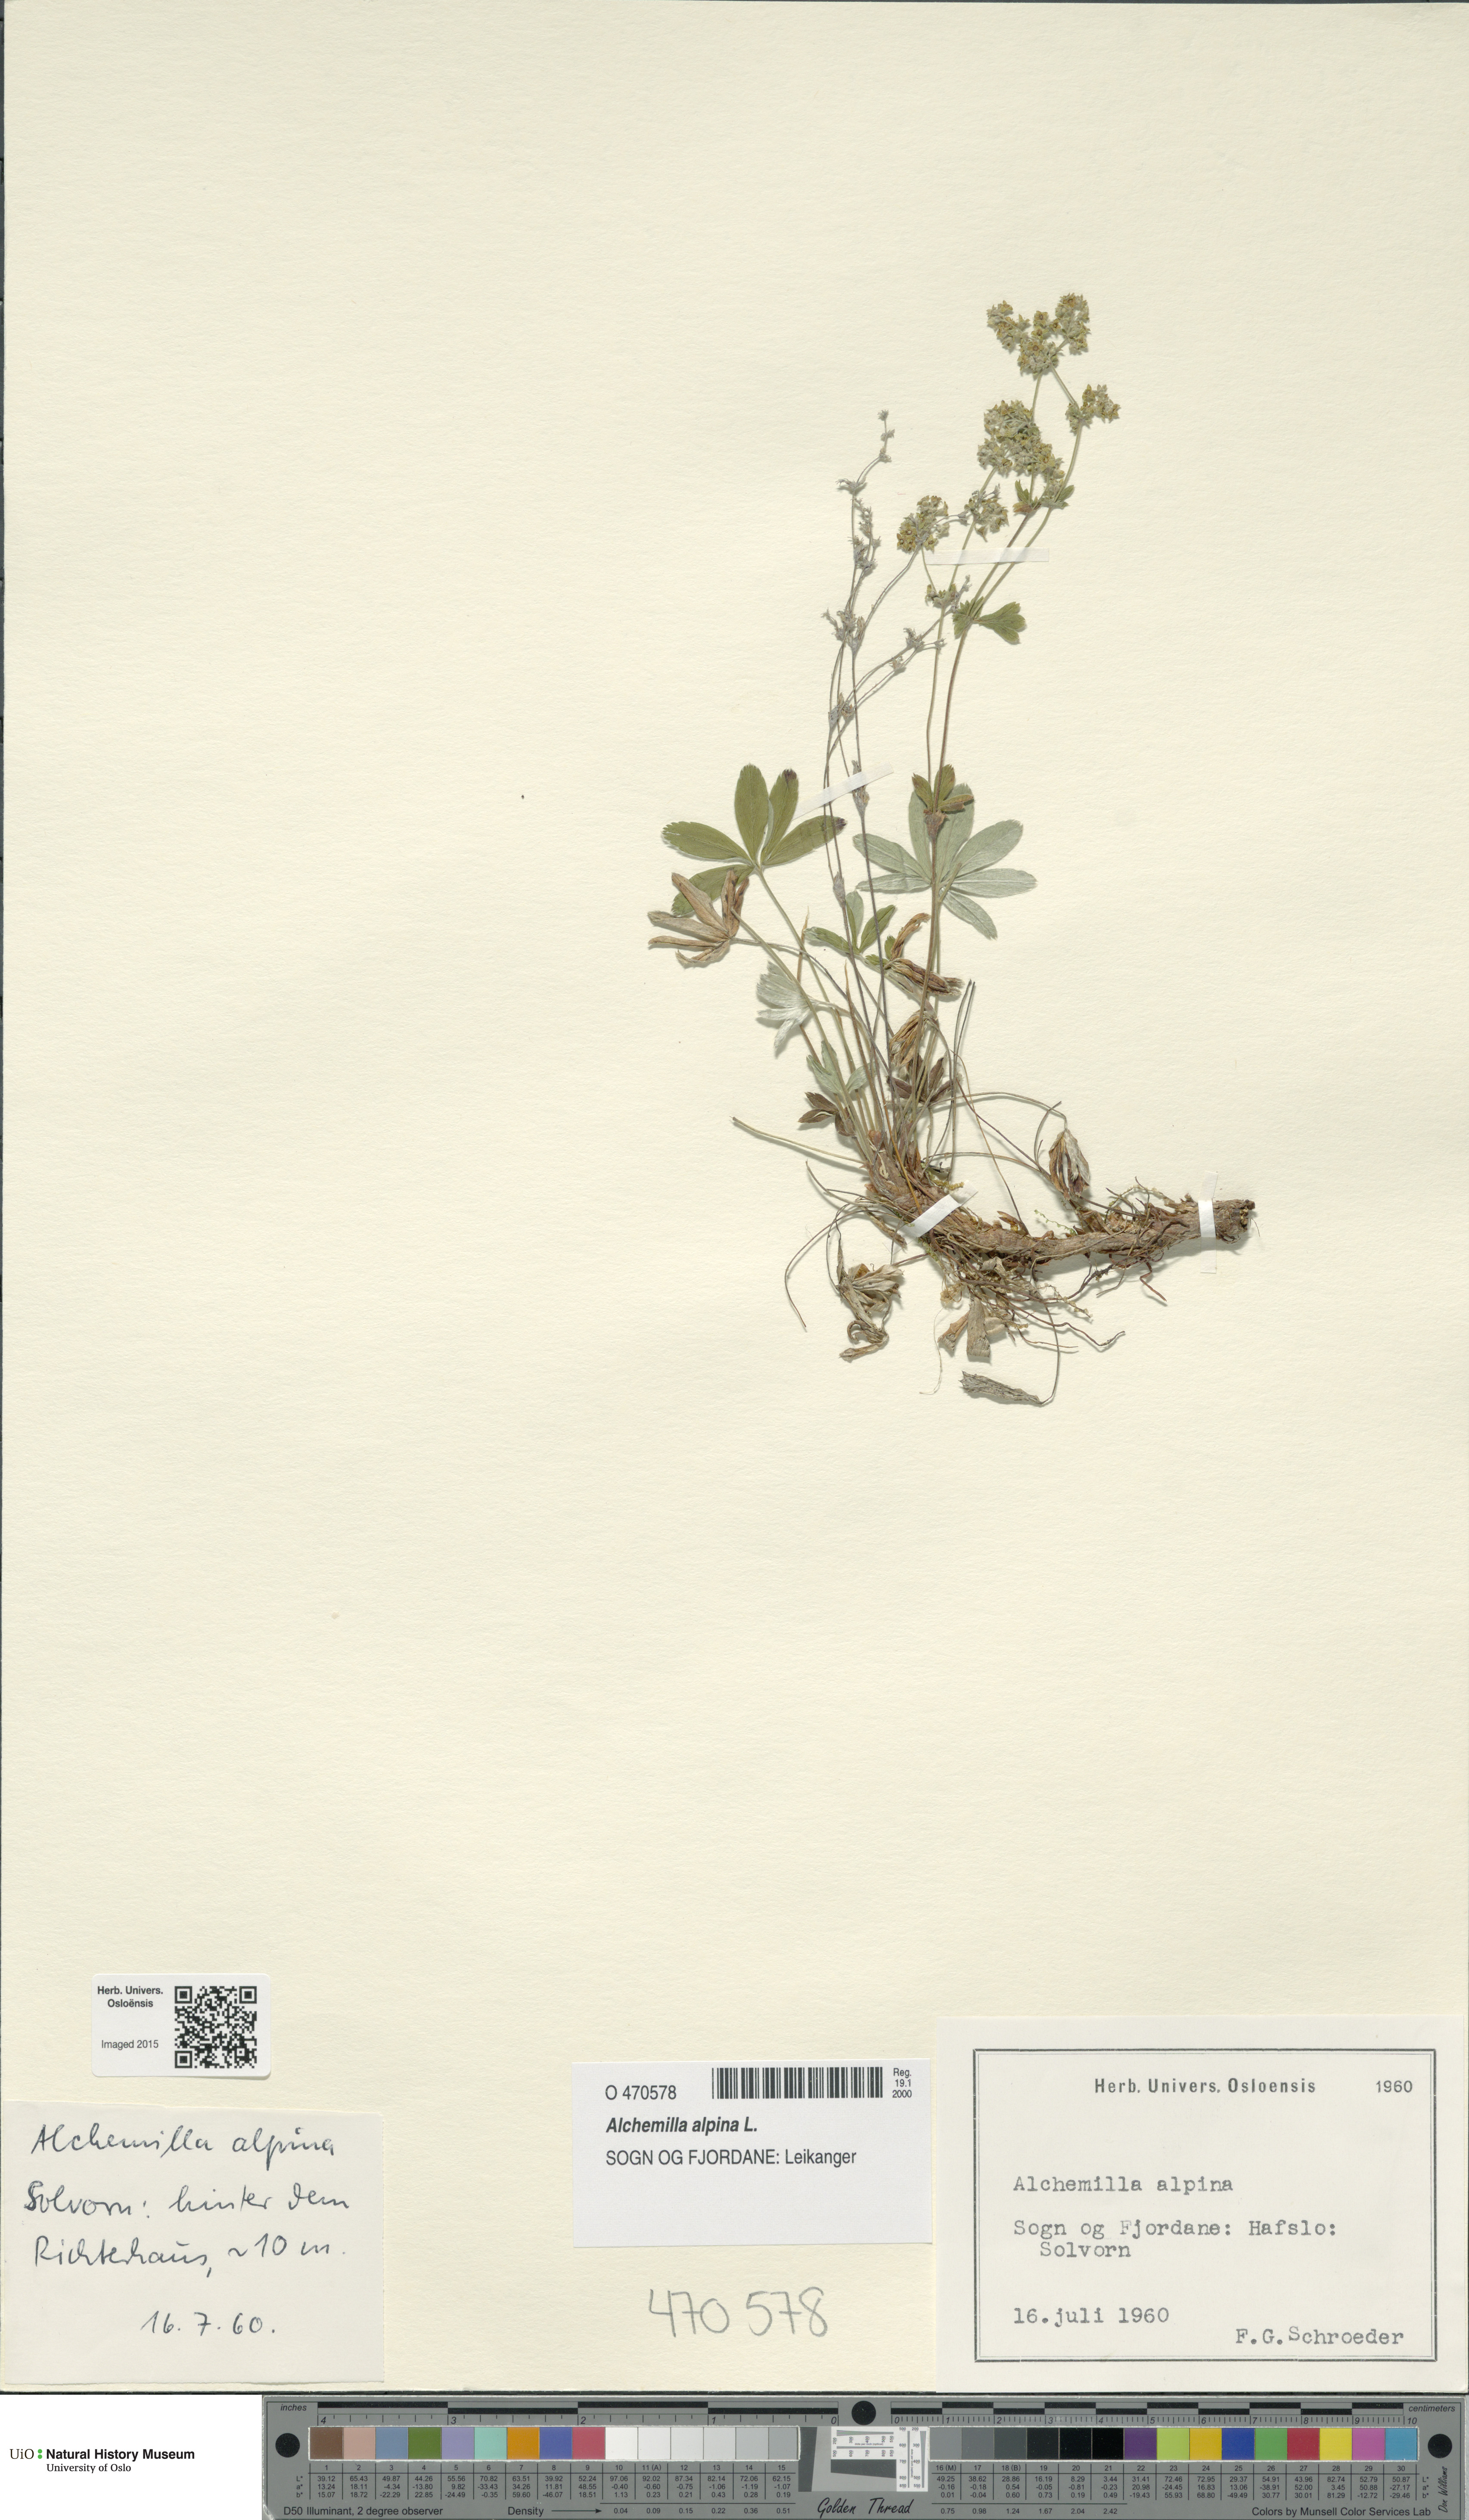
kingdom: Plantae
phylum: Tracheophyta
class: Magnoliopsida
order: Rosales
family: Rosaceae
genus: Alchemilla
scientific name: Alchemilla alpina
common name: Alpine lady's-mantle
